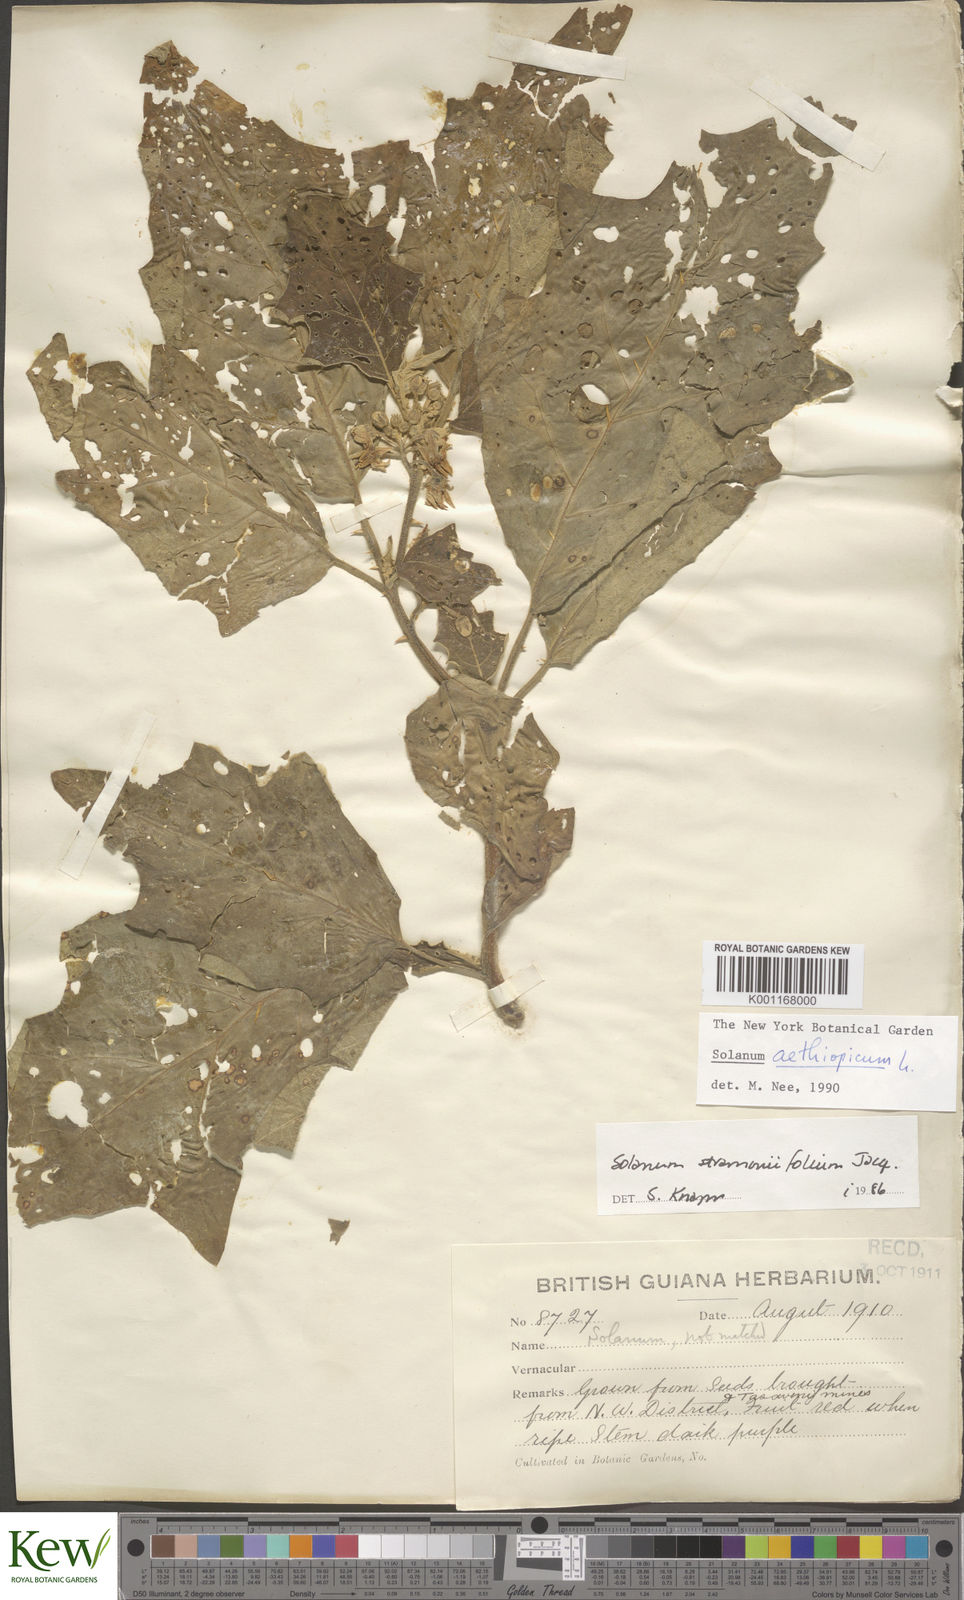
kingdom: Plantae
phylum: Tracheophyta
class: Magnoliopsida
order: Solanales
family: Solanaceae
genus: Solanum
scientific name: Solanum aethiopicum
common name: Gilo
